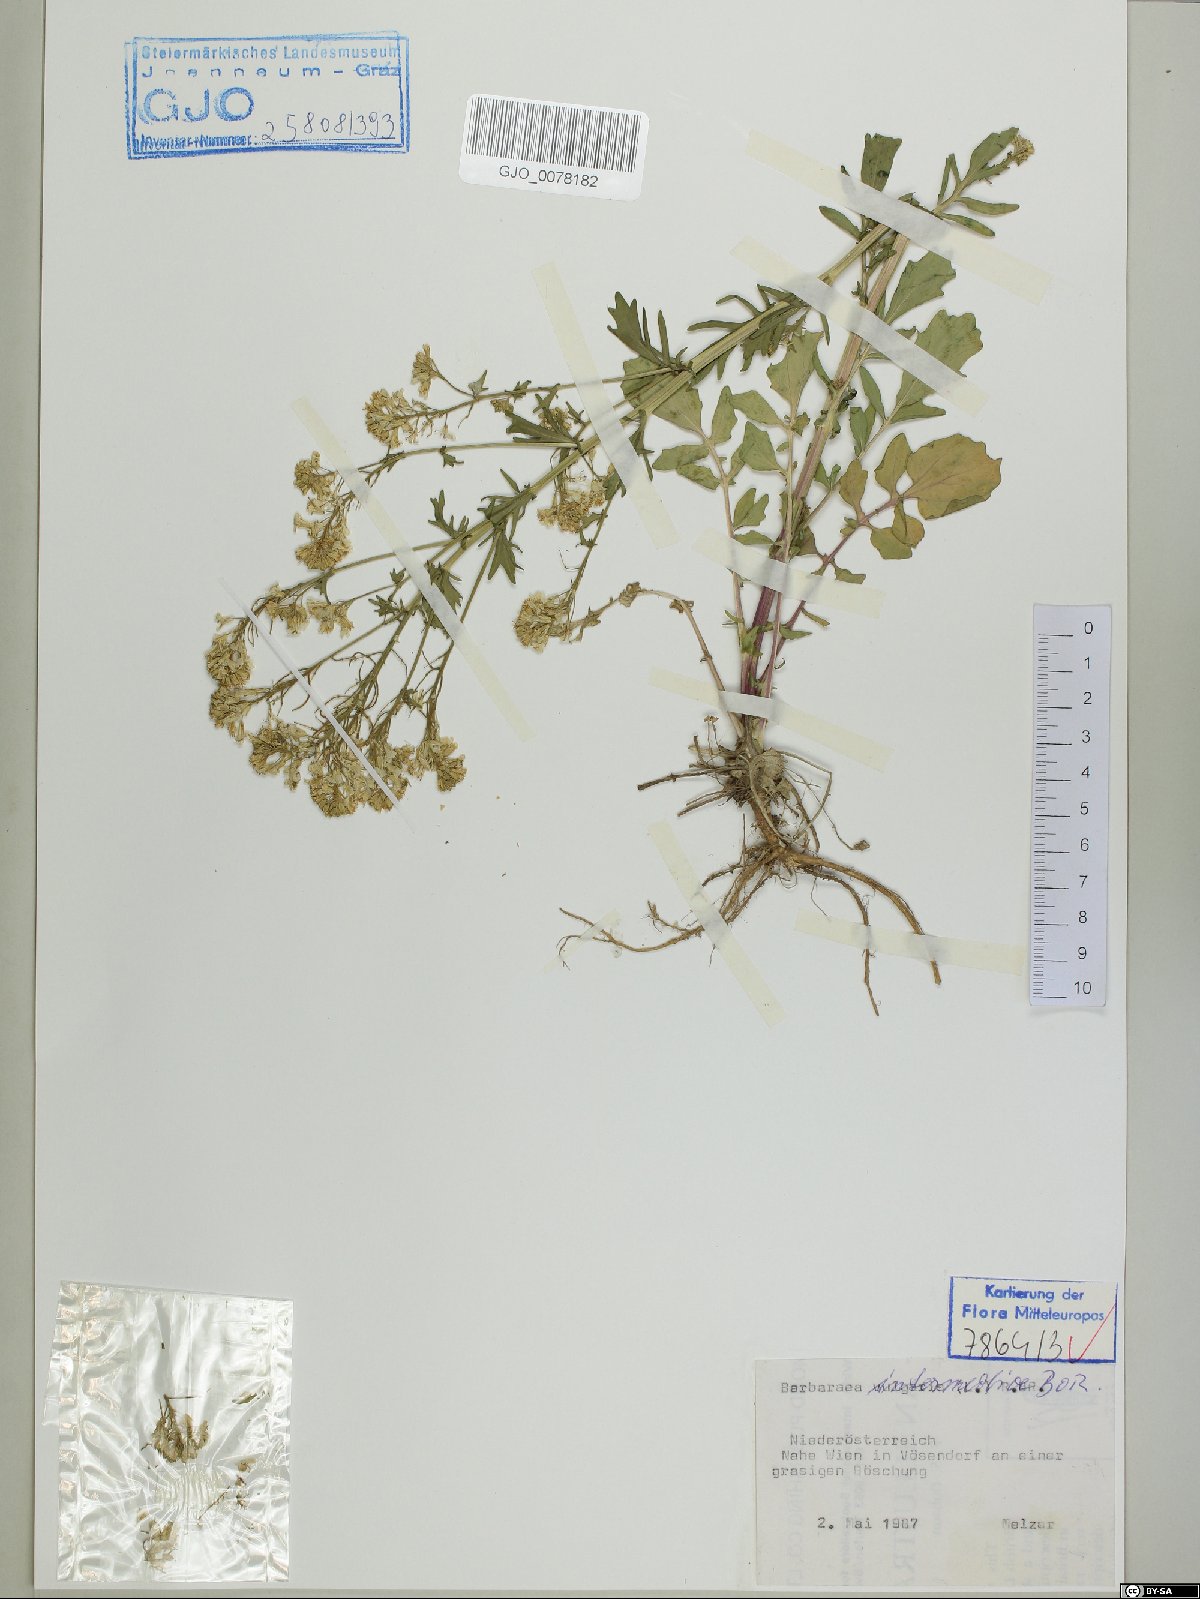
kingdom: Plantae
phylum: Tracheophyta
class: Magnoliopsida
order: Brassicales
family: Brassicaceae
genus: Barbarea
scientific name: Barbarea intermedia
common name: Medium-flowered winter-cress
